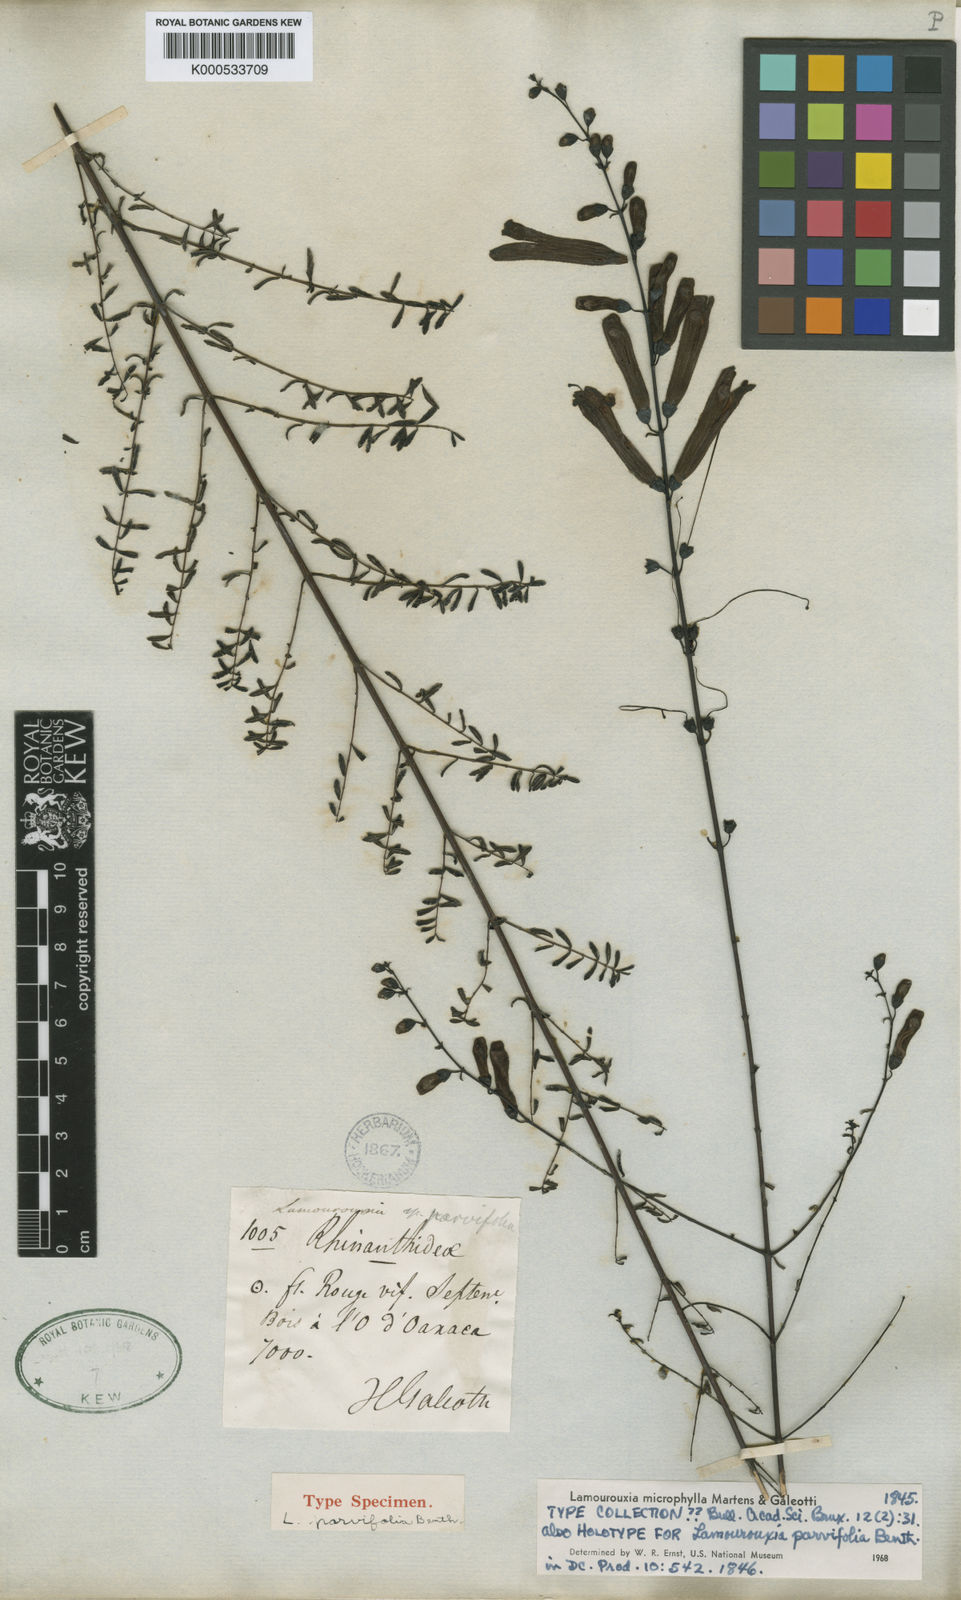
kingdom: Plantae
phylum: Tracheophyta
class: Magnoliopsida
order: Lamiales
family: Orobanchaceae
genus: Lamourouxia
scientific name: Lamourouxia microphylla
